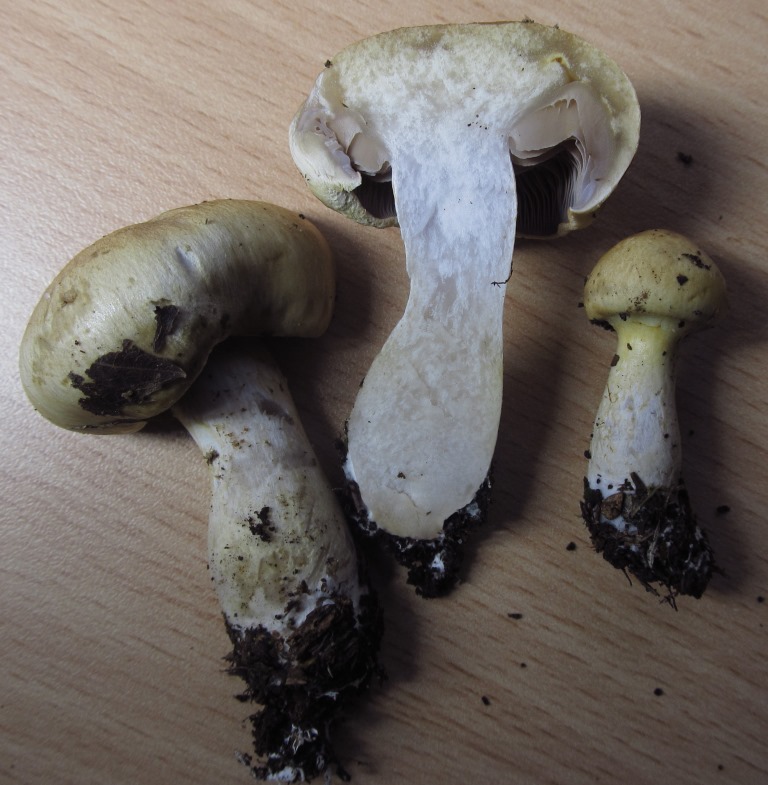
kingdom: Fungi
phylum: Basidiomycota
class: Agaricomycetes
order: Agaricales
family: Cortinariaceae
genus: Cortinarius
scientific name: Cortinarius delibutus
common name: gul slørhat
